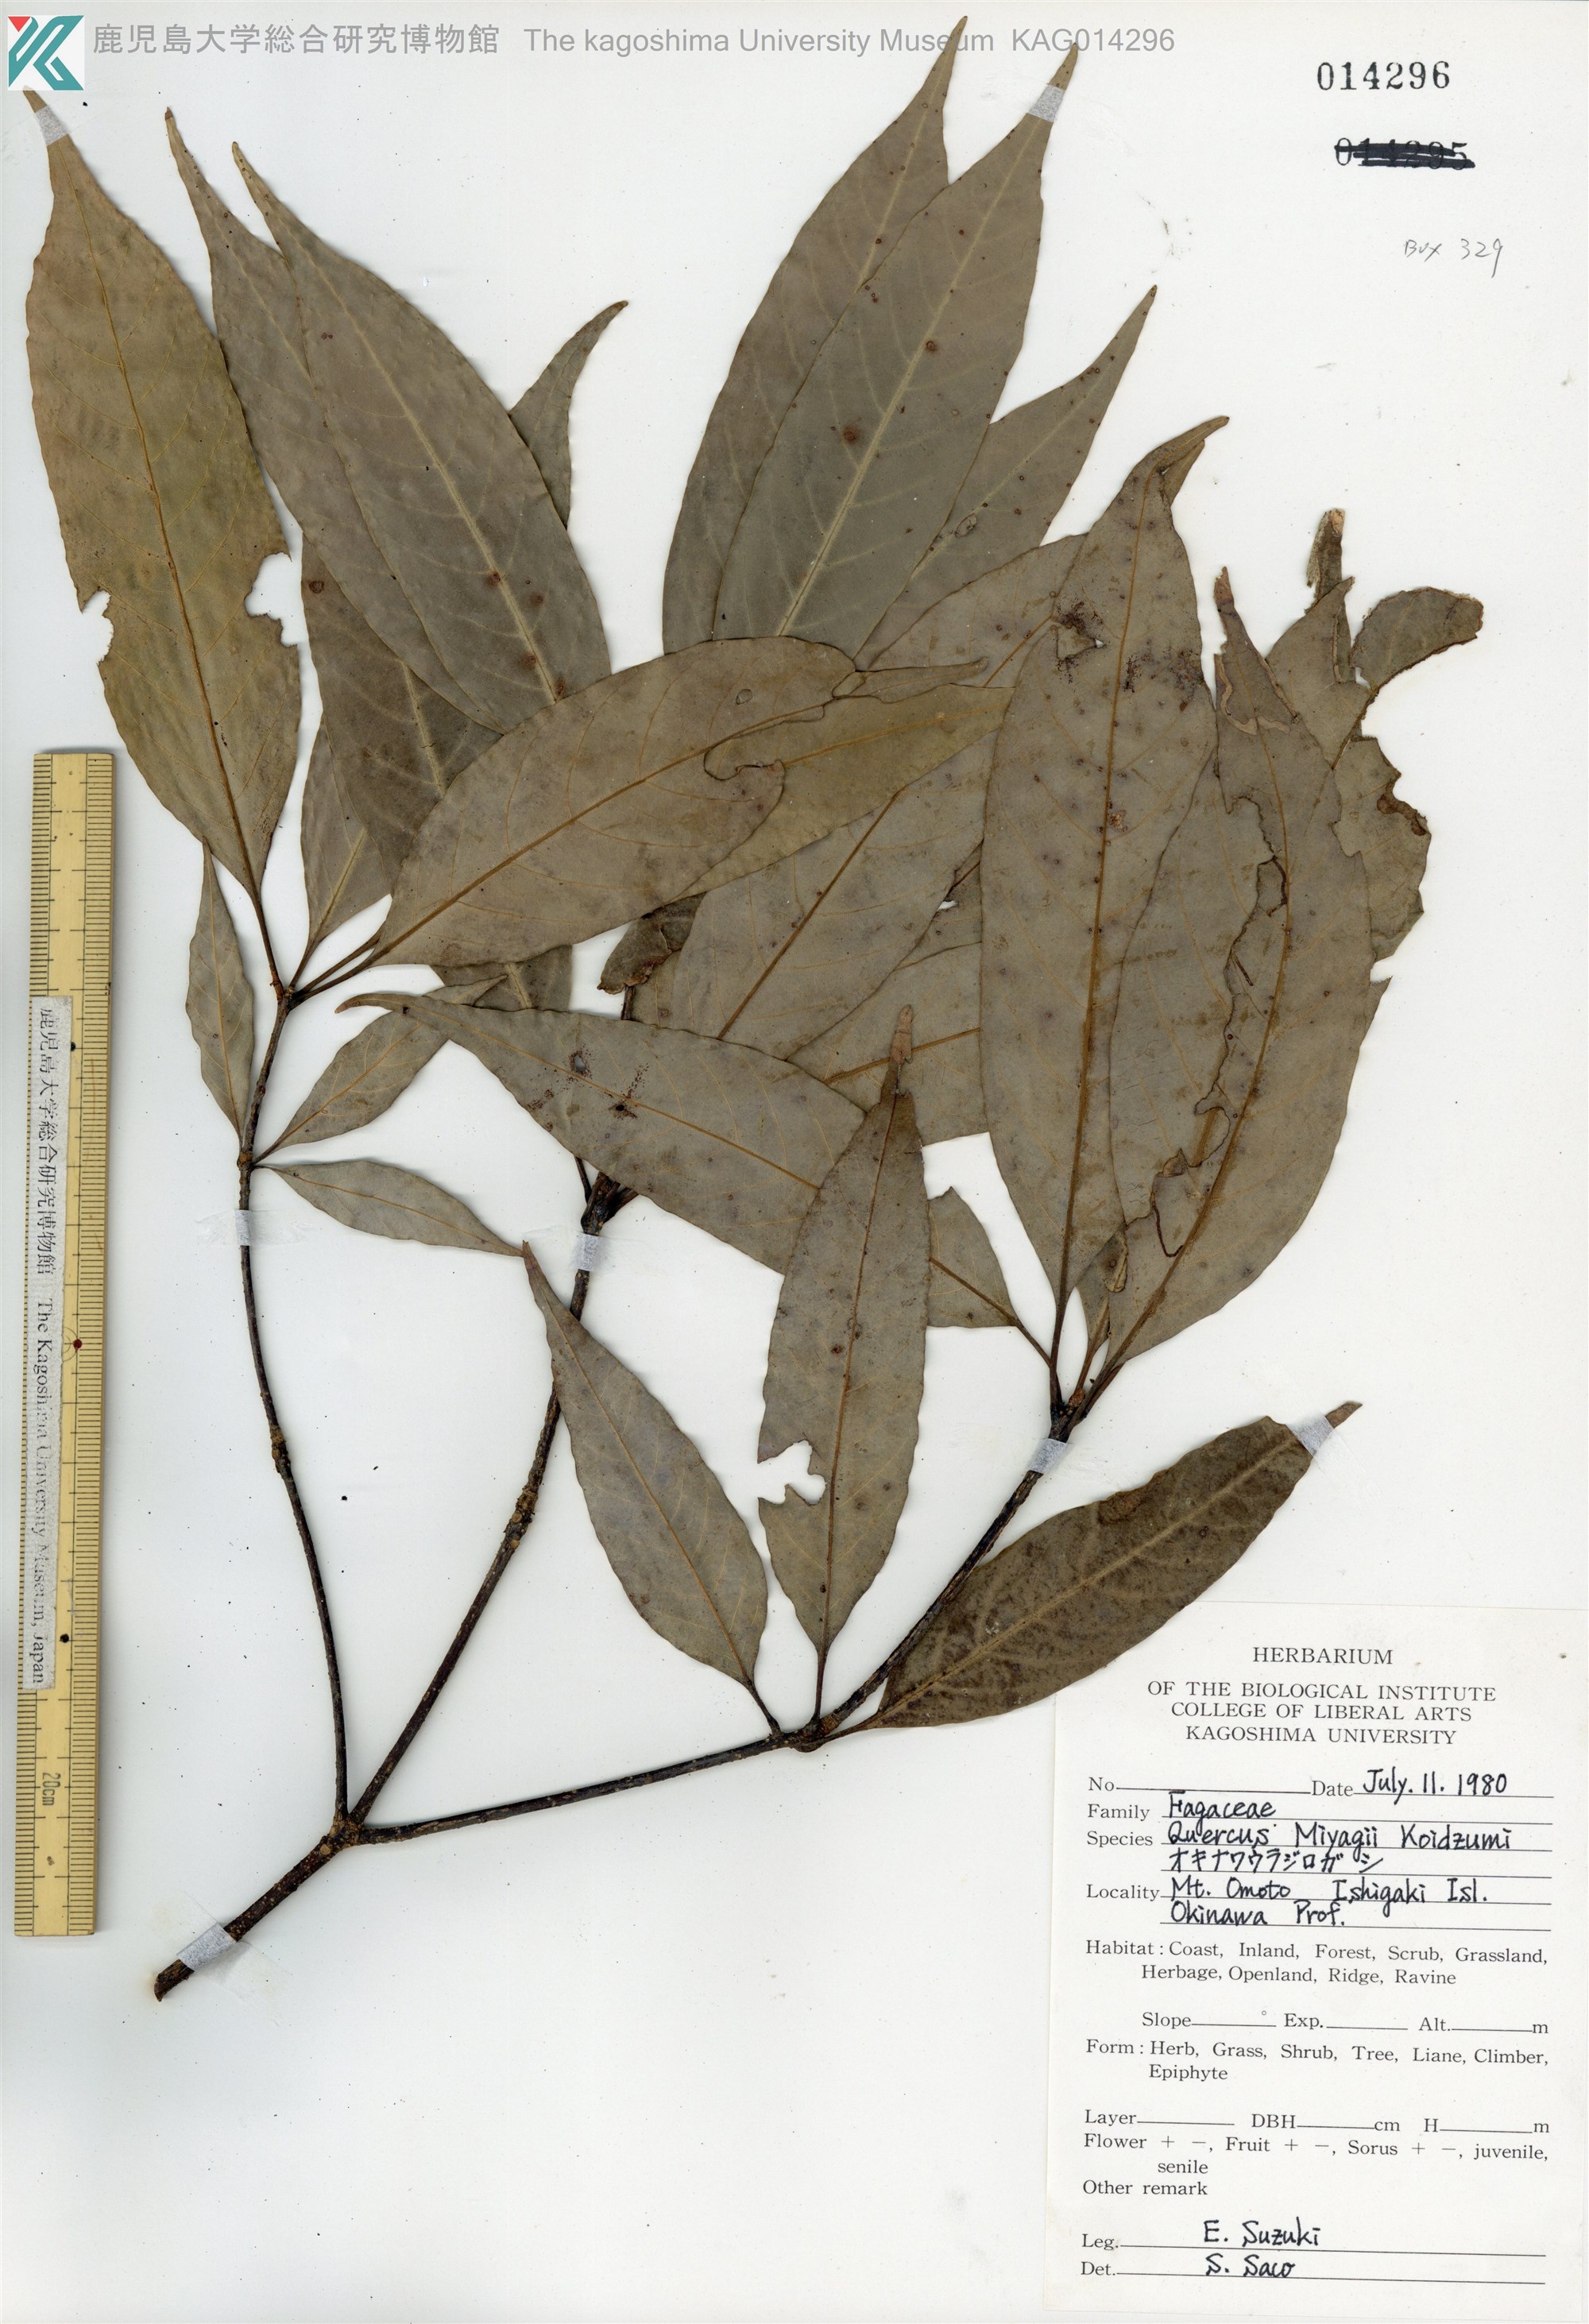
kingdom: Plantae
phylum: Tracheophyta
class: Magnoliopsida
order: Fagales
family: Fagaceae
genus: Quercus
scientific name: Quercus miyagii
